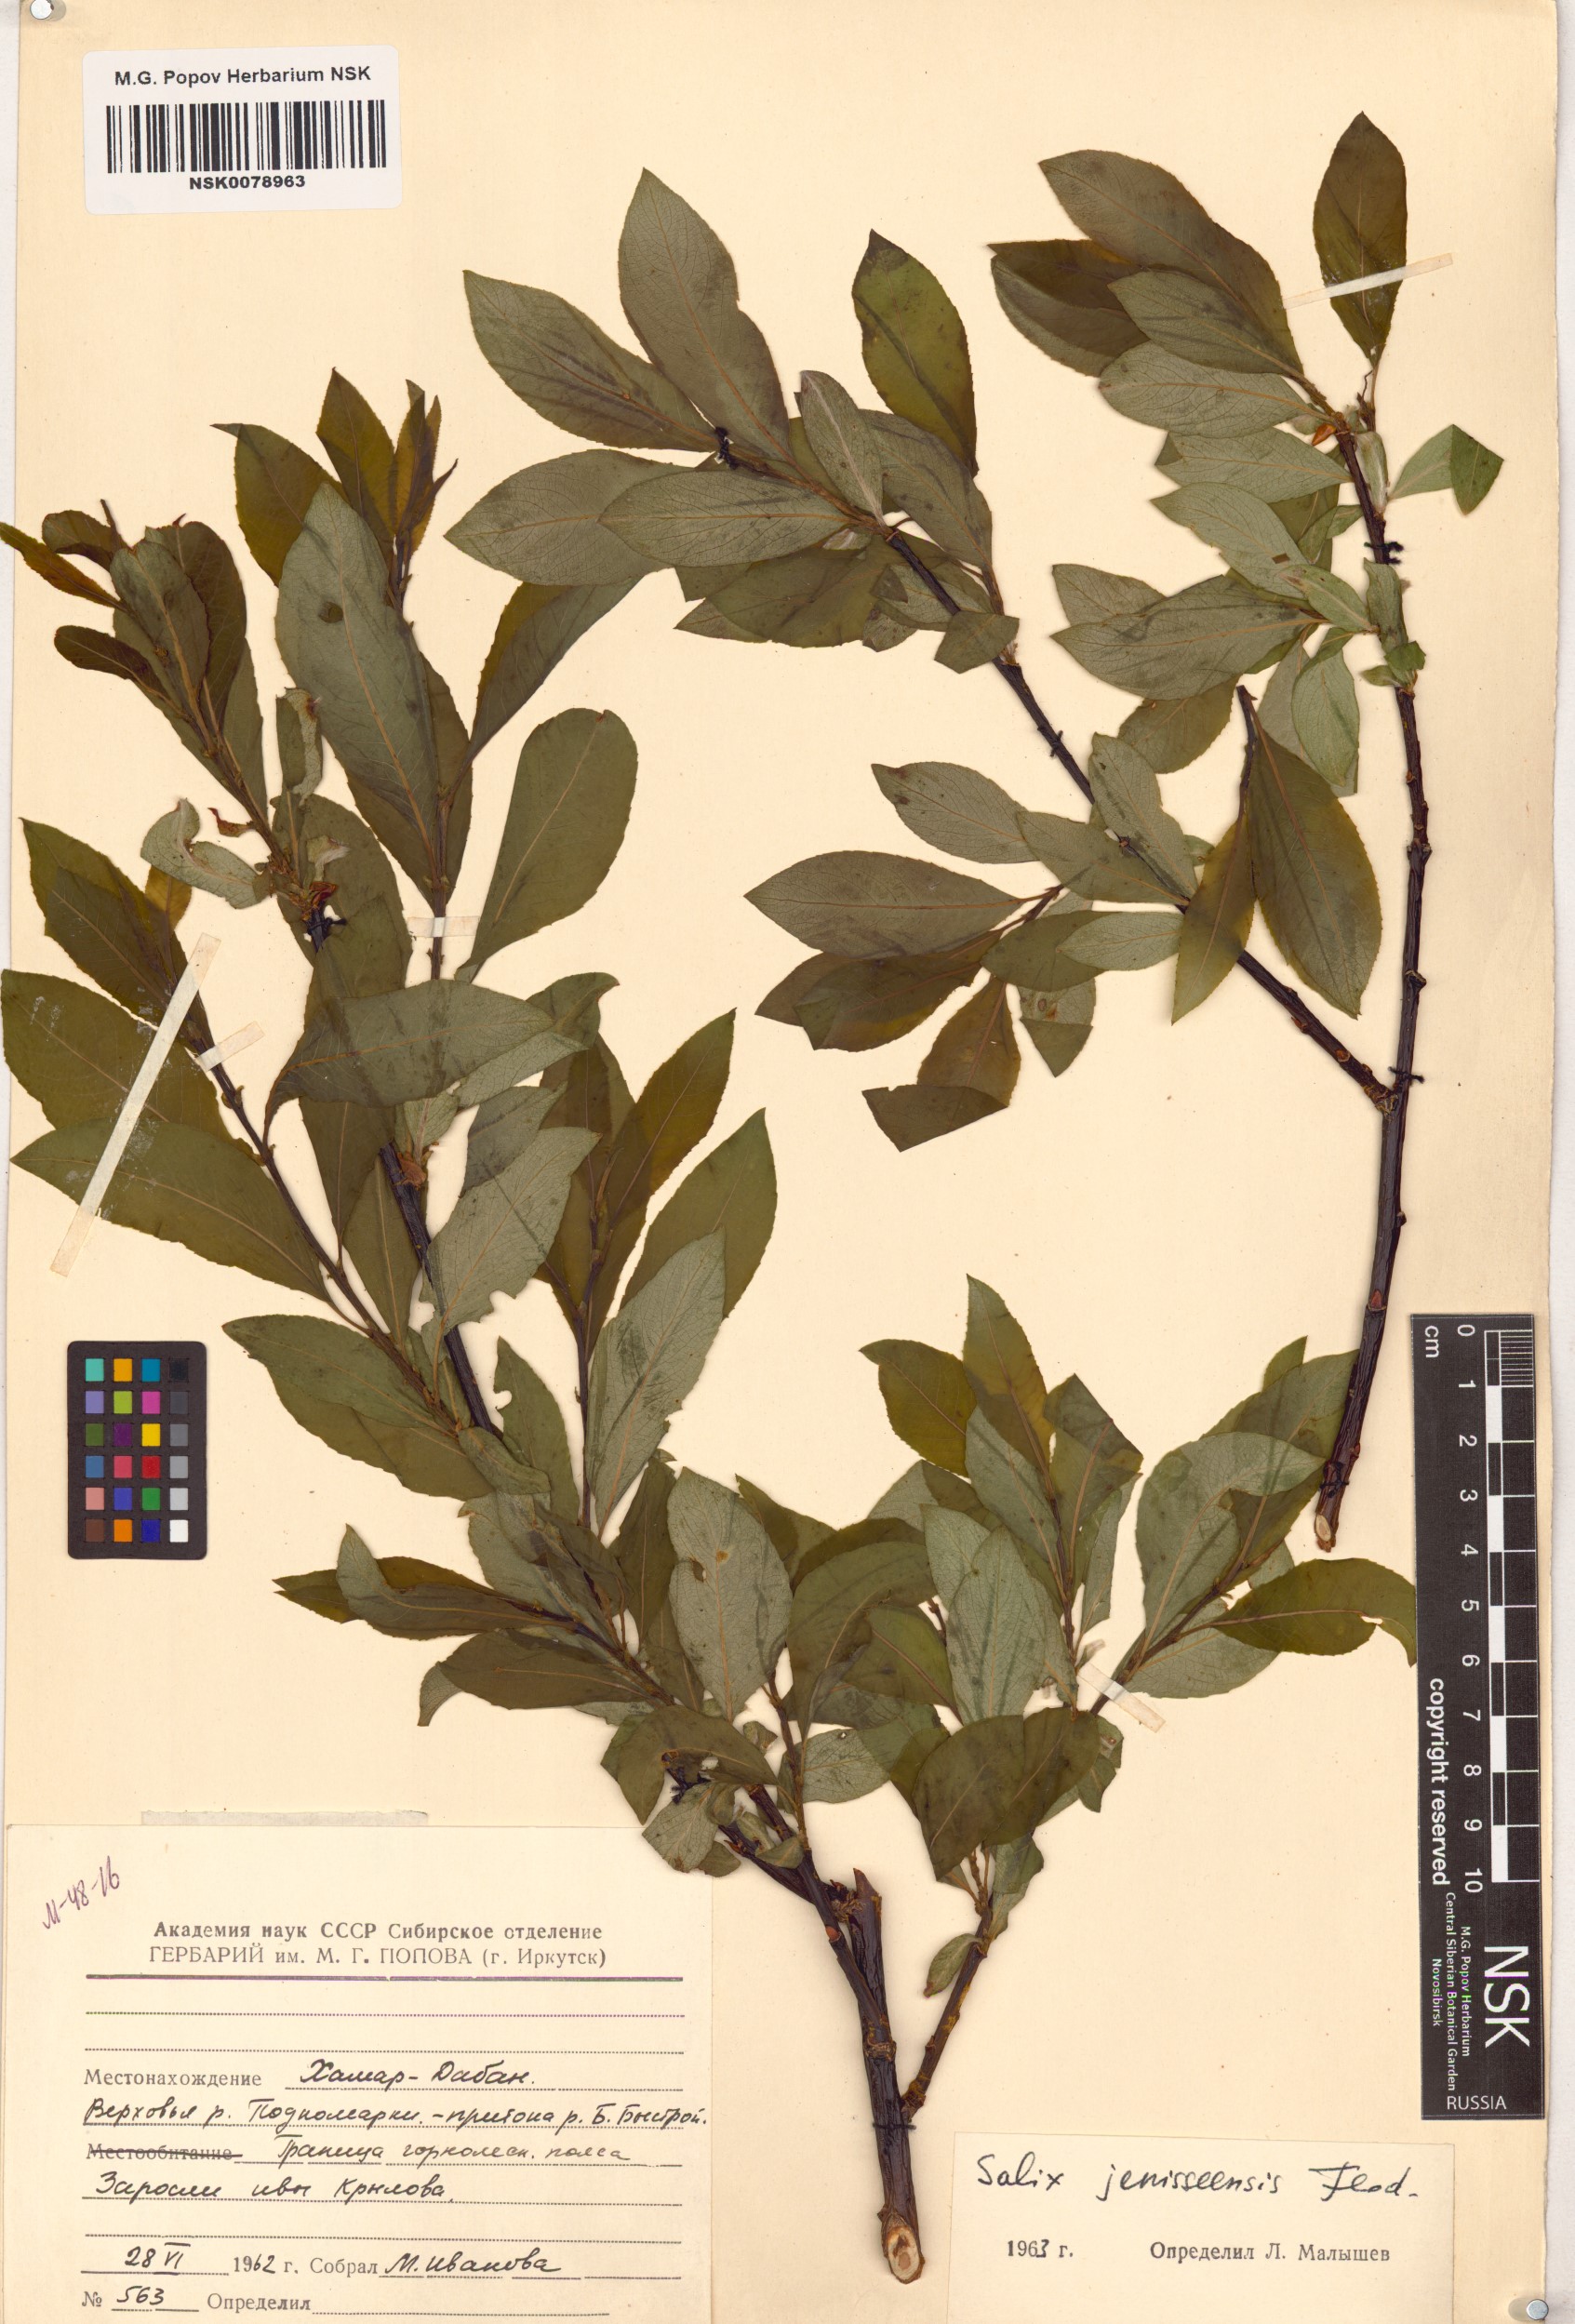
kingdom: Plantae
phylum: Tracheophyta
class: Magnoliopsida
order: Malpighiales
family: Salicaceae
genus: Salix
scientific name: Salix jenisseensis
